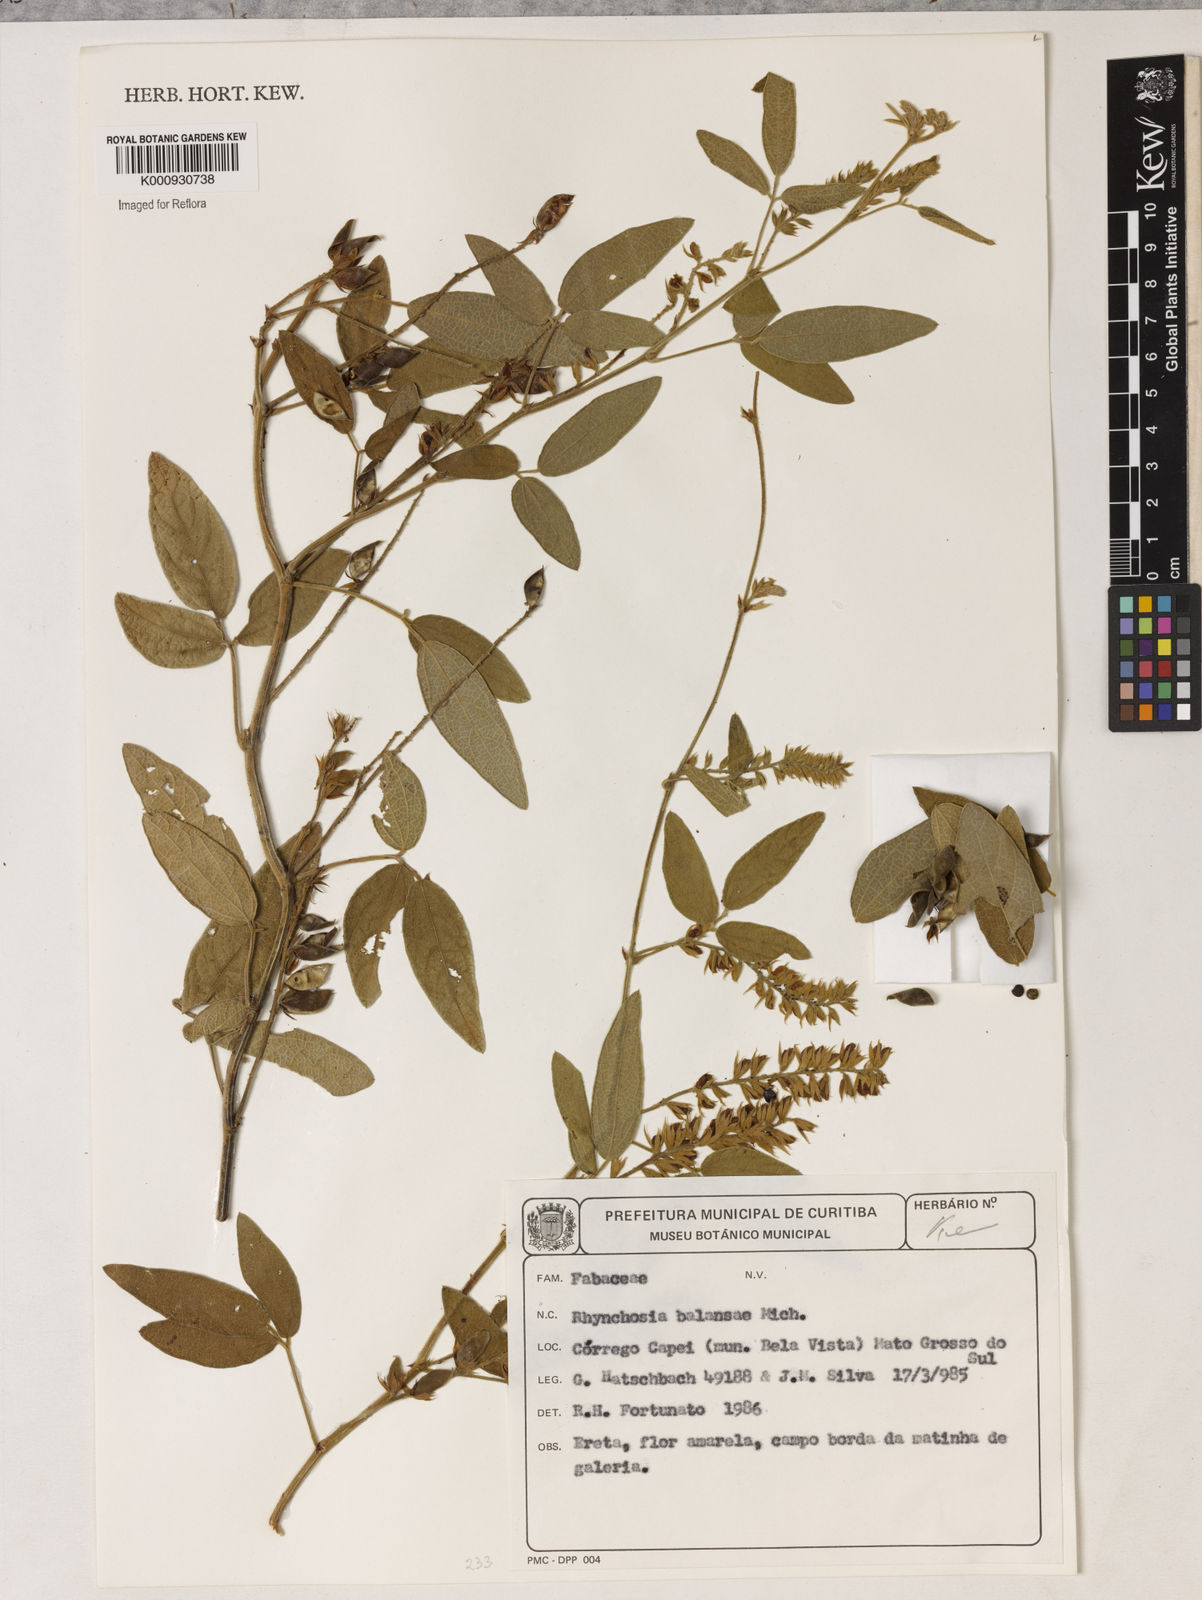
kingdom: Plantae
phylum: Tracheophyta
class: Magnoliopsida
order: Fabales
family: Fabaceae
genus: Rhynchosia
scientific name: Rhynchosia balansae
